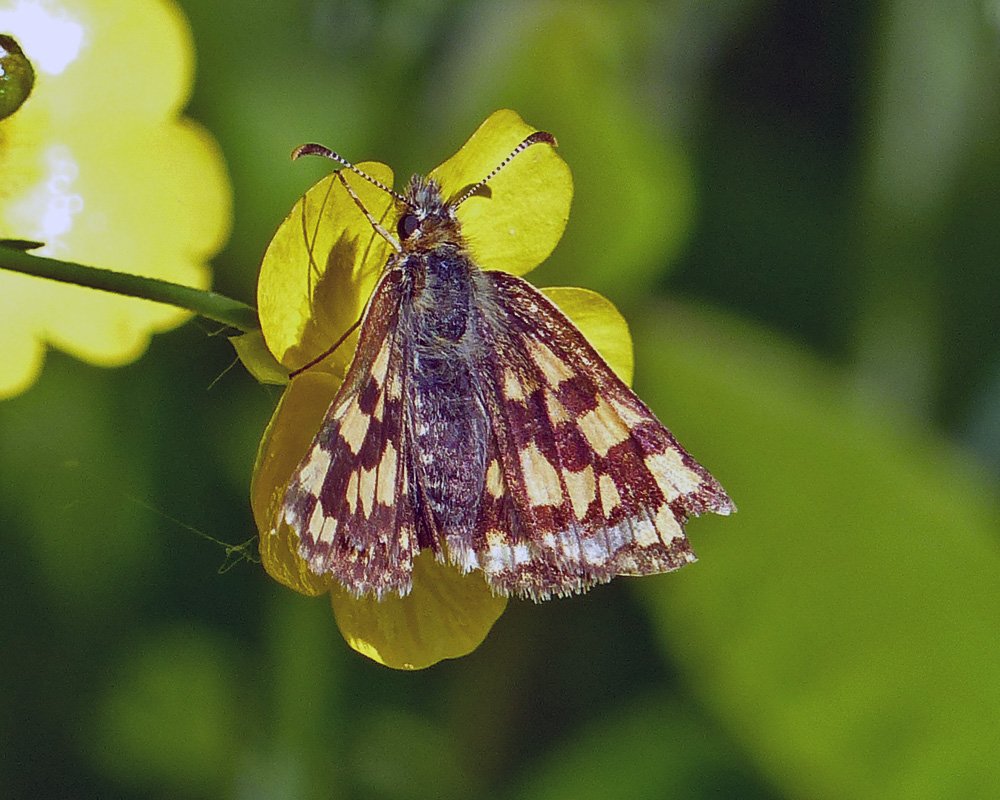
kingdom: Animalia
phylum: Arthropoda
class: Insecta
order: Lepidoptera
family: Hesperiidae
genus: Carterocephalus
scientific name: Carterocephalus palaemon
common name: Chequered Skipper
